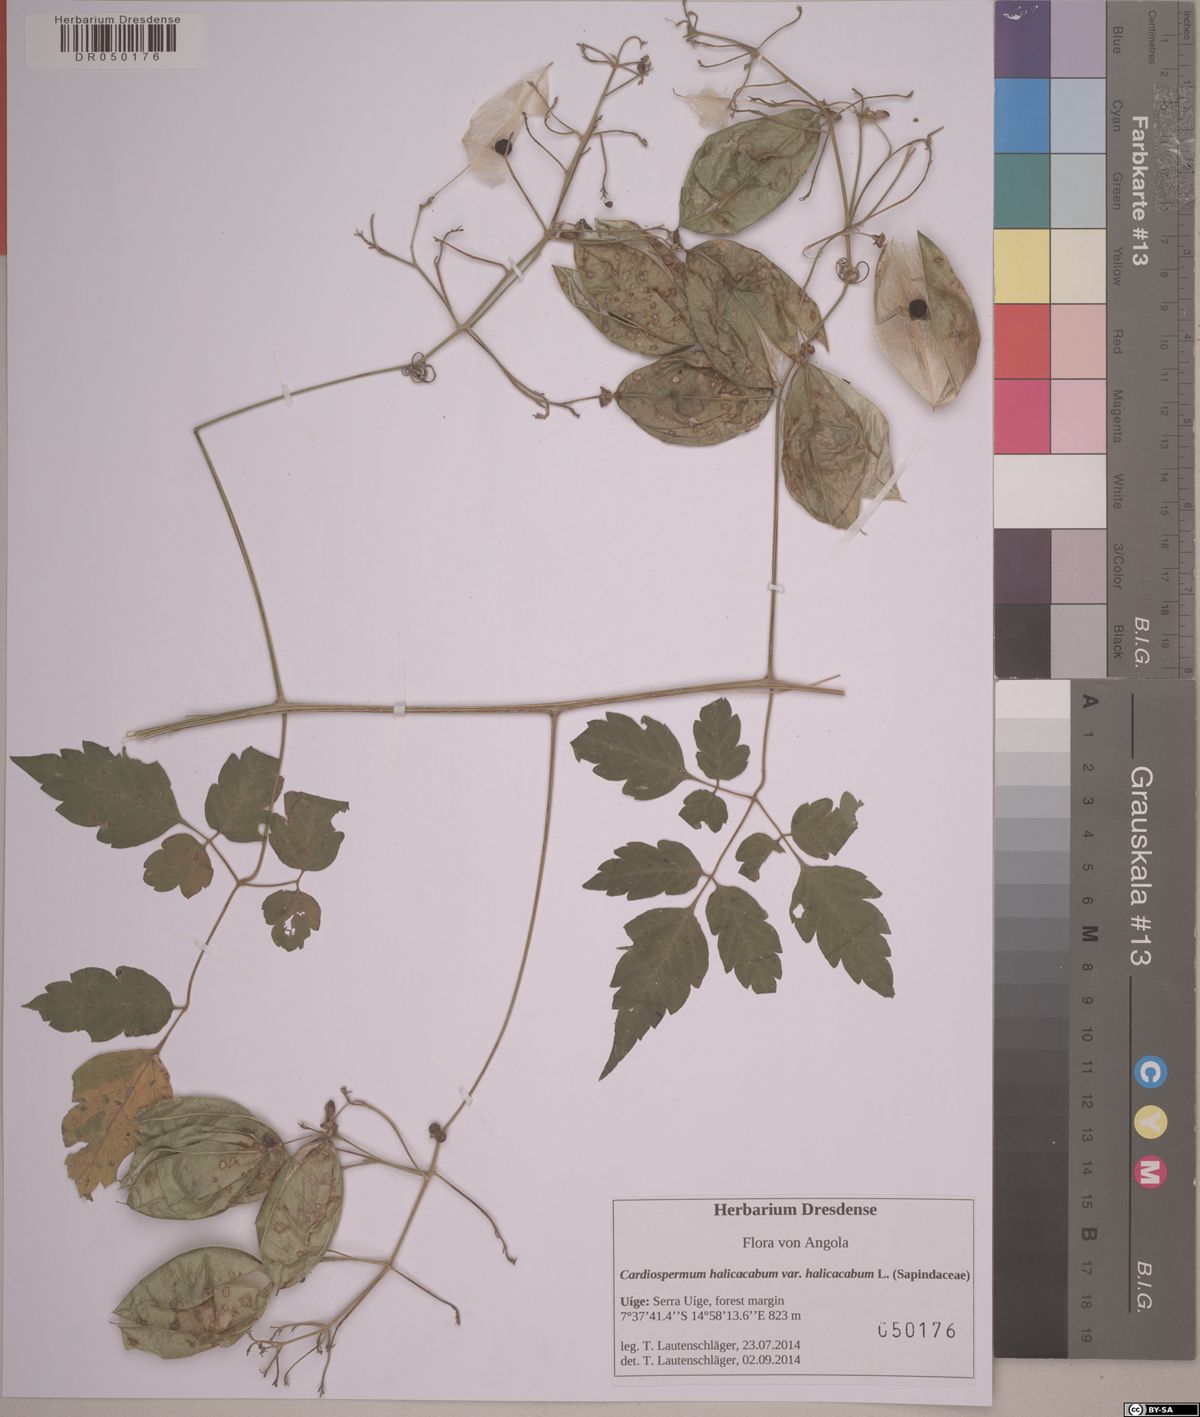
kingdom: Plantae
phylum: Tracheophyta
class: Magnoliopsida
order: Sapindales
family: Sapindaceae
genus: Cardiospermum
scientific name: Cardiospermum grandiflorum
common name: Balloon vine
